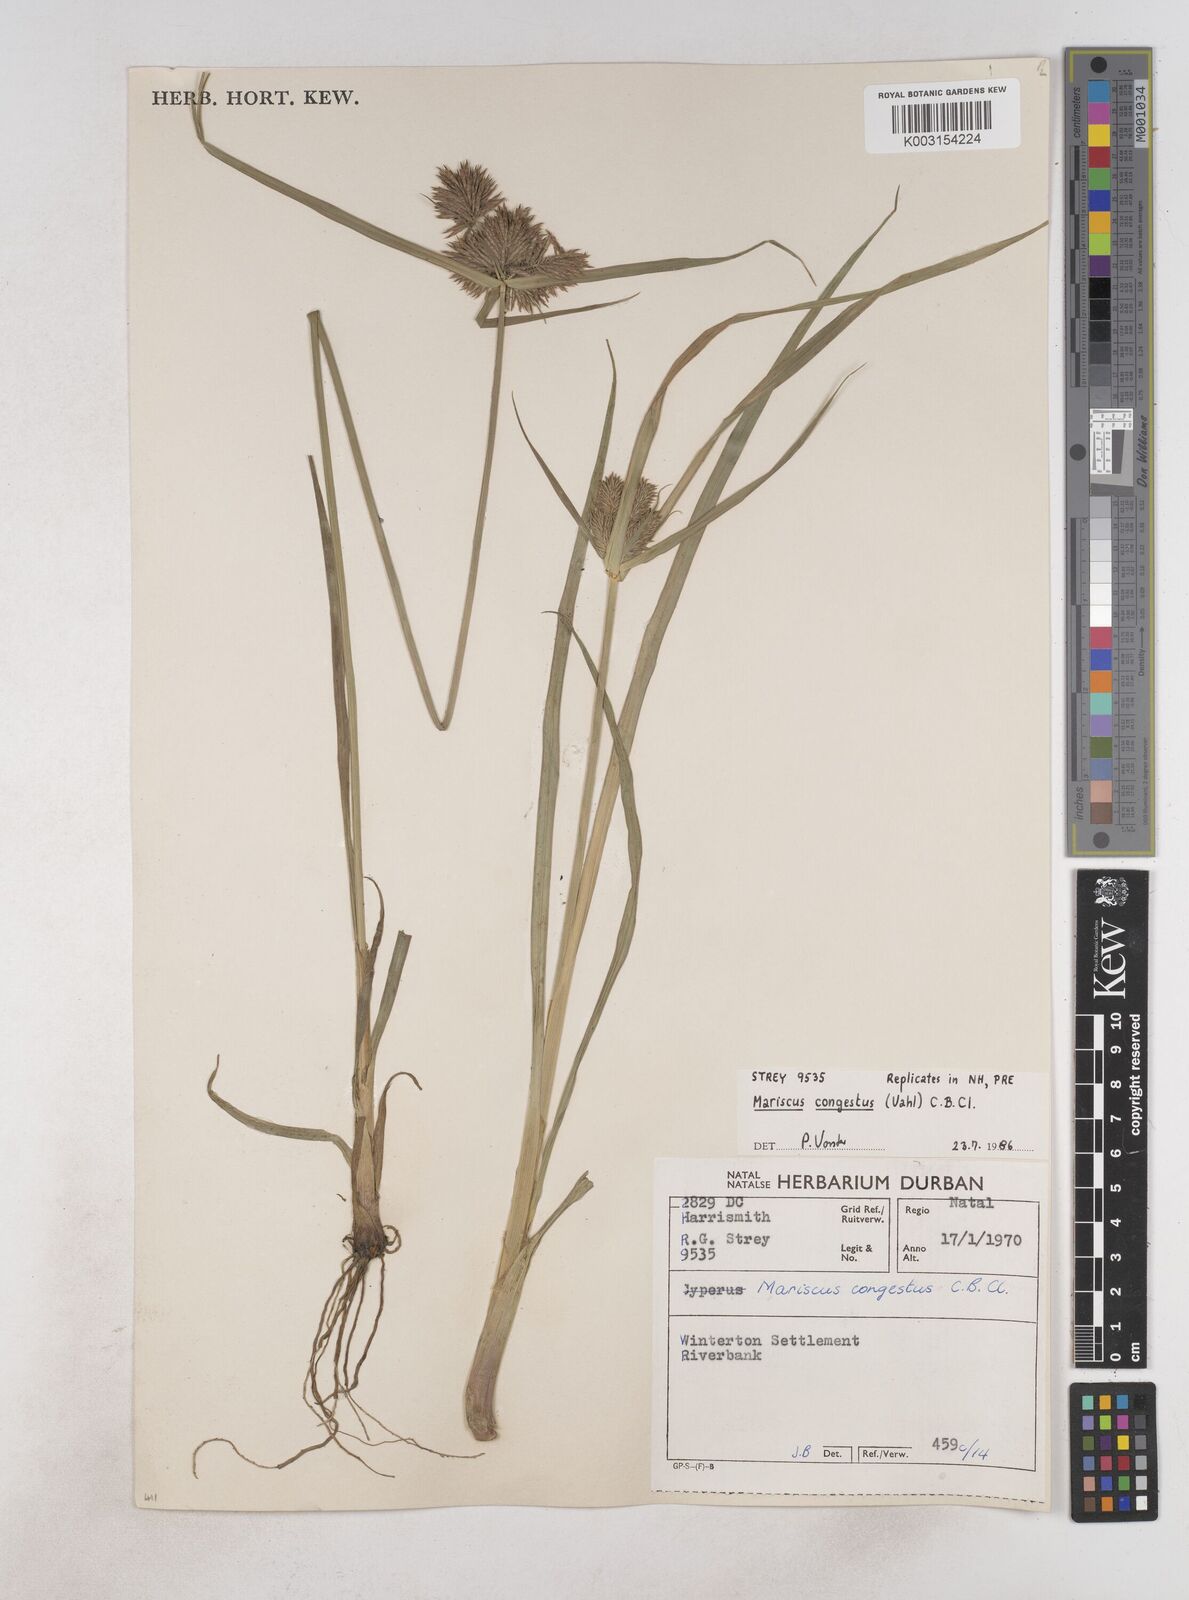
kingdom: Plantae
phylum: Tracheophyta
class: Liliopsida
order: Poales
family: Cyperaceae
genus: Cyperus
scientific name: Cyperus congestus
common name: Dense flat sedge
